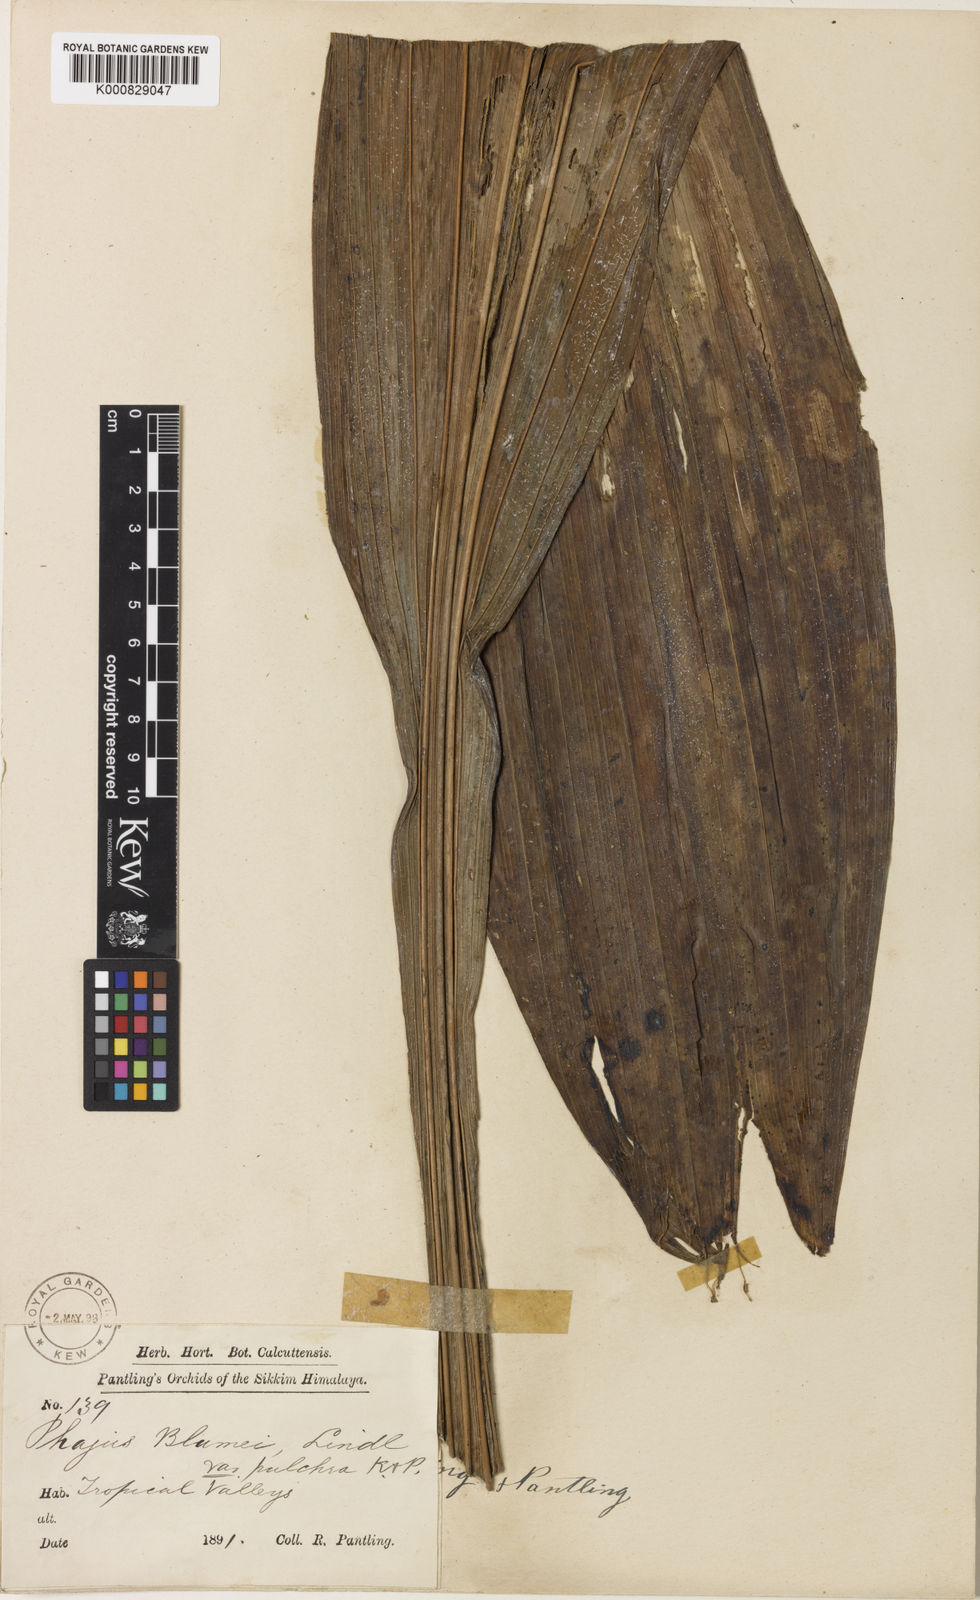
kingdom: Plantae
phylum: Tracheophyta
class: Liliopsida
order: Asparagales
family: Orchidaceae
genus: Calanthe
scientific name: Calanthe tankervilleae
